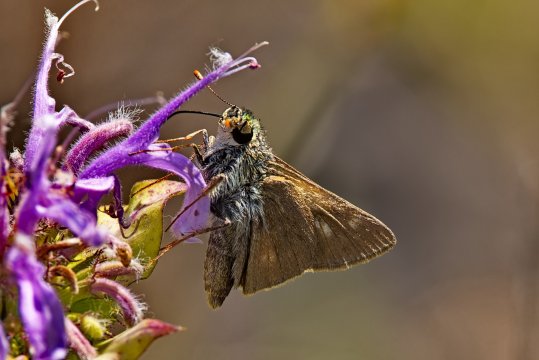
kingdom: Animalia
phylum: Arthropoda
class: Insecta
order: Lepidoptera
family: Hesperiidae
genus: Polites
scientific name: Polites
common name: Crossline Skipper
